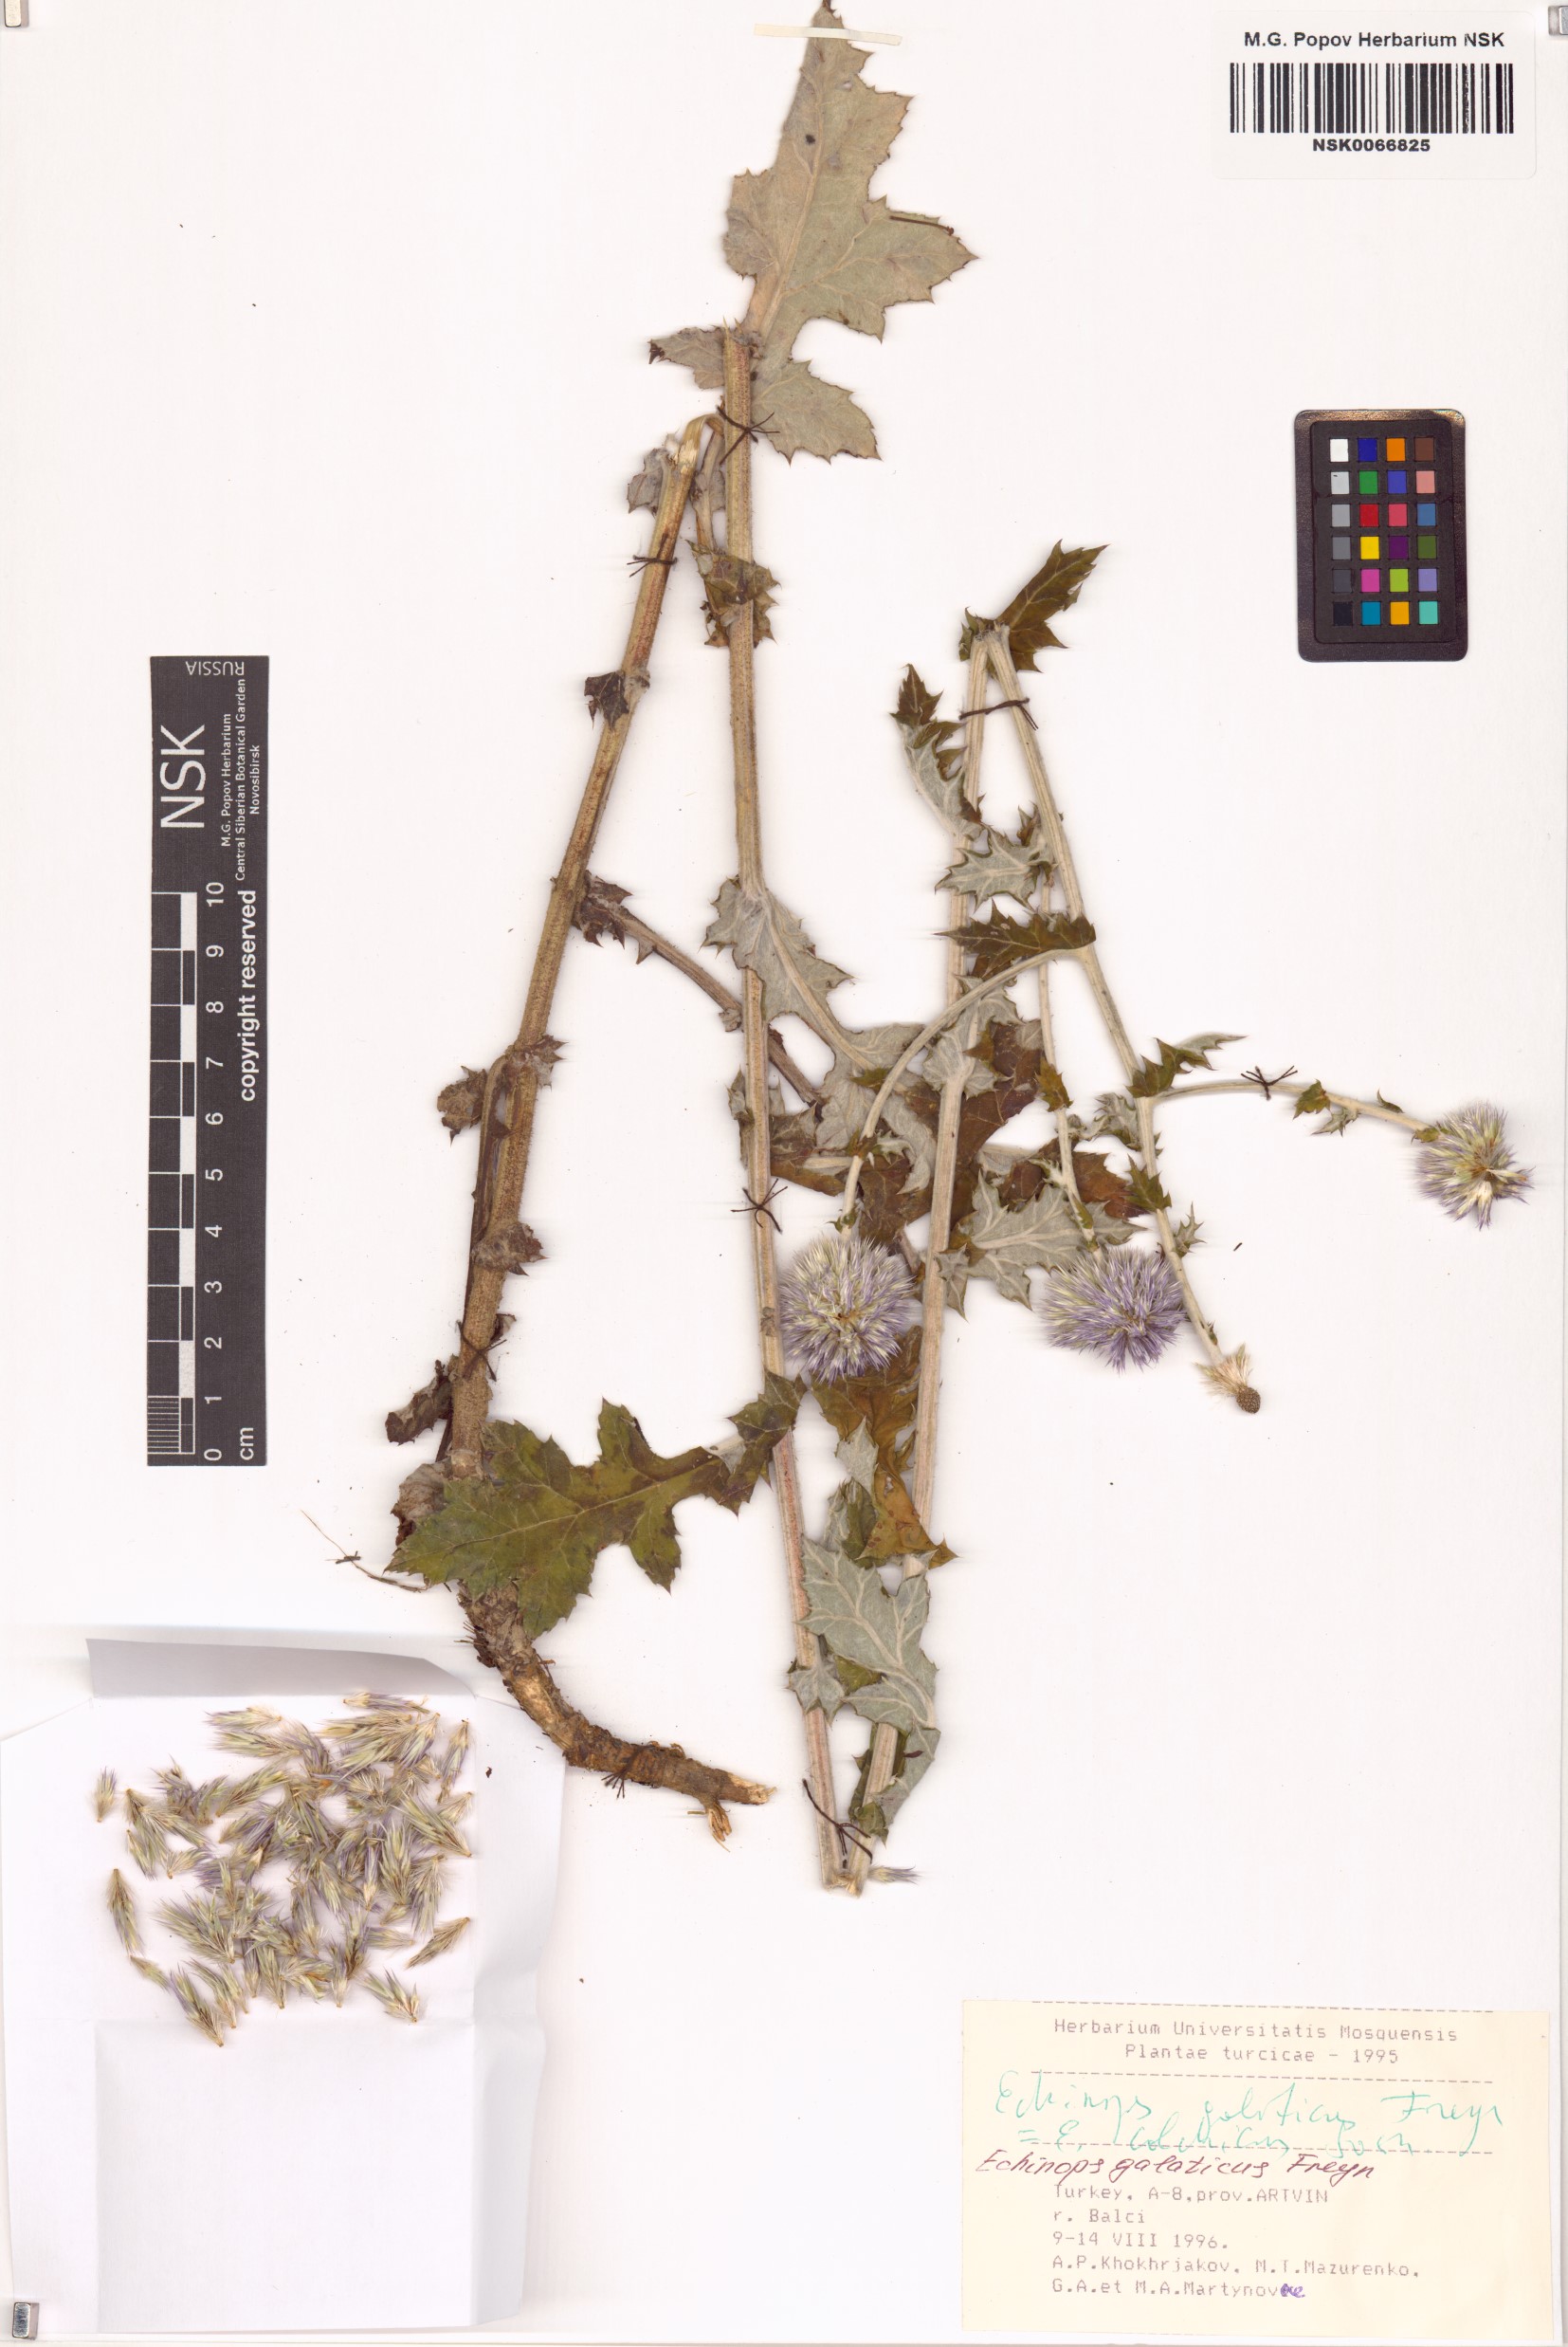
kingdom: Plantae
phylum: Tracheophyta
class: Magnoliopsida
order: Asterales
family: Asteraceae
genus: Echinops
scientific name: Echinops ossicus
